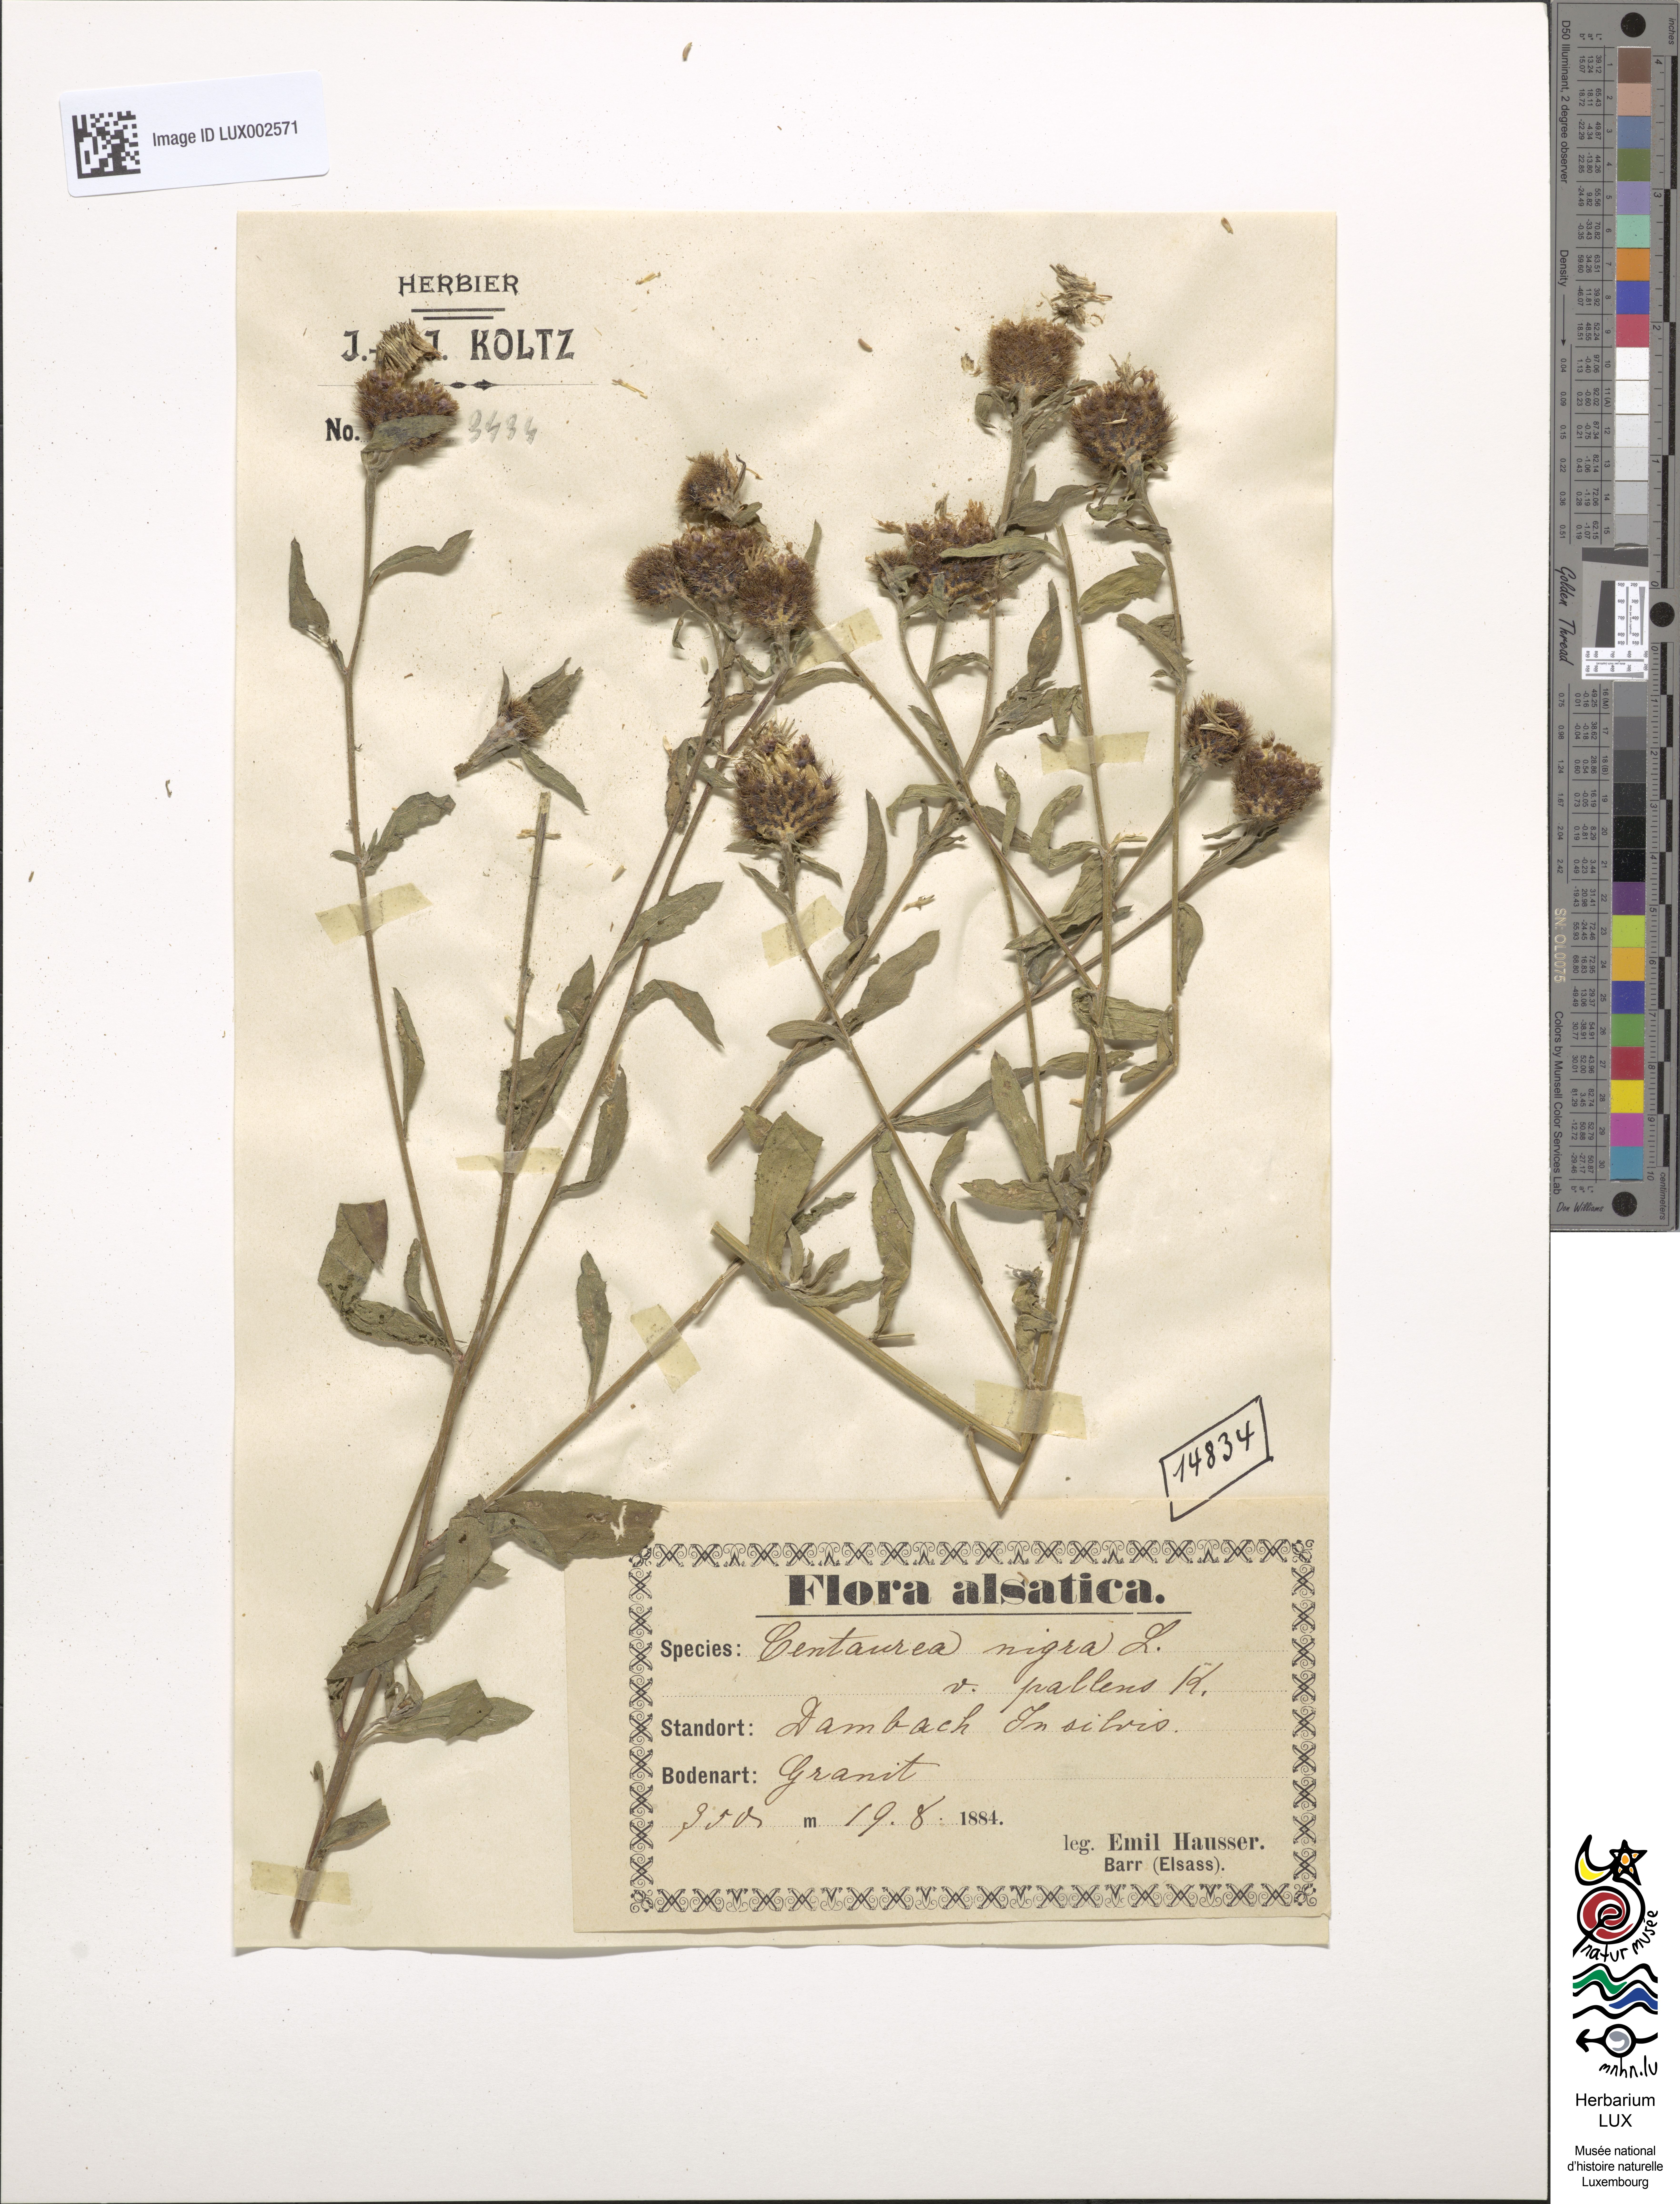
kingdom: Plantae
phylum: Tracheophyta
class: Magnoliopsida
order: Asterales
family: Asteraceae
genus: Centaurea
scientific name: Centaurea nigra
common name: Lesser knapweed
